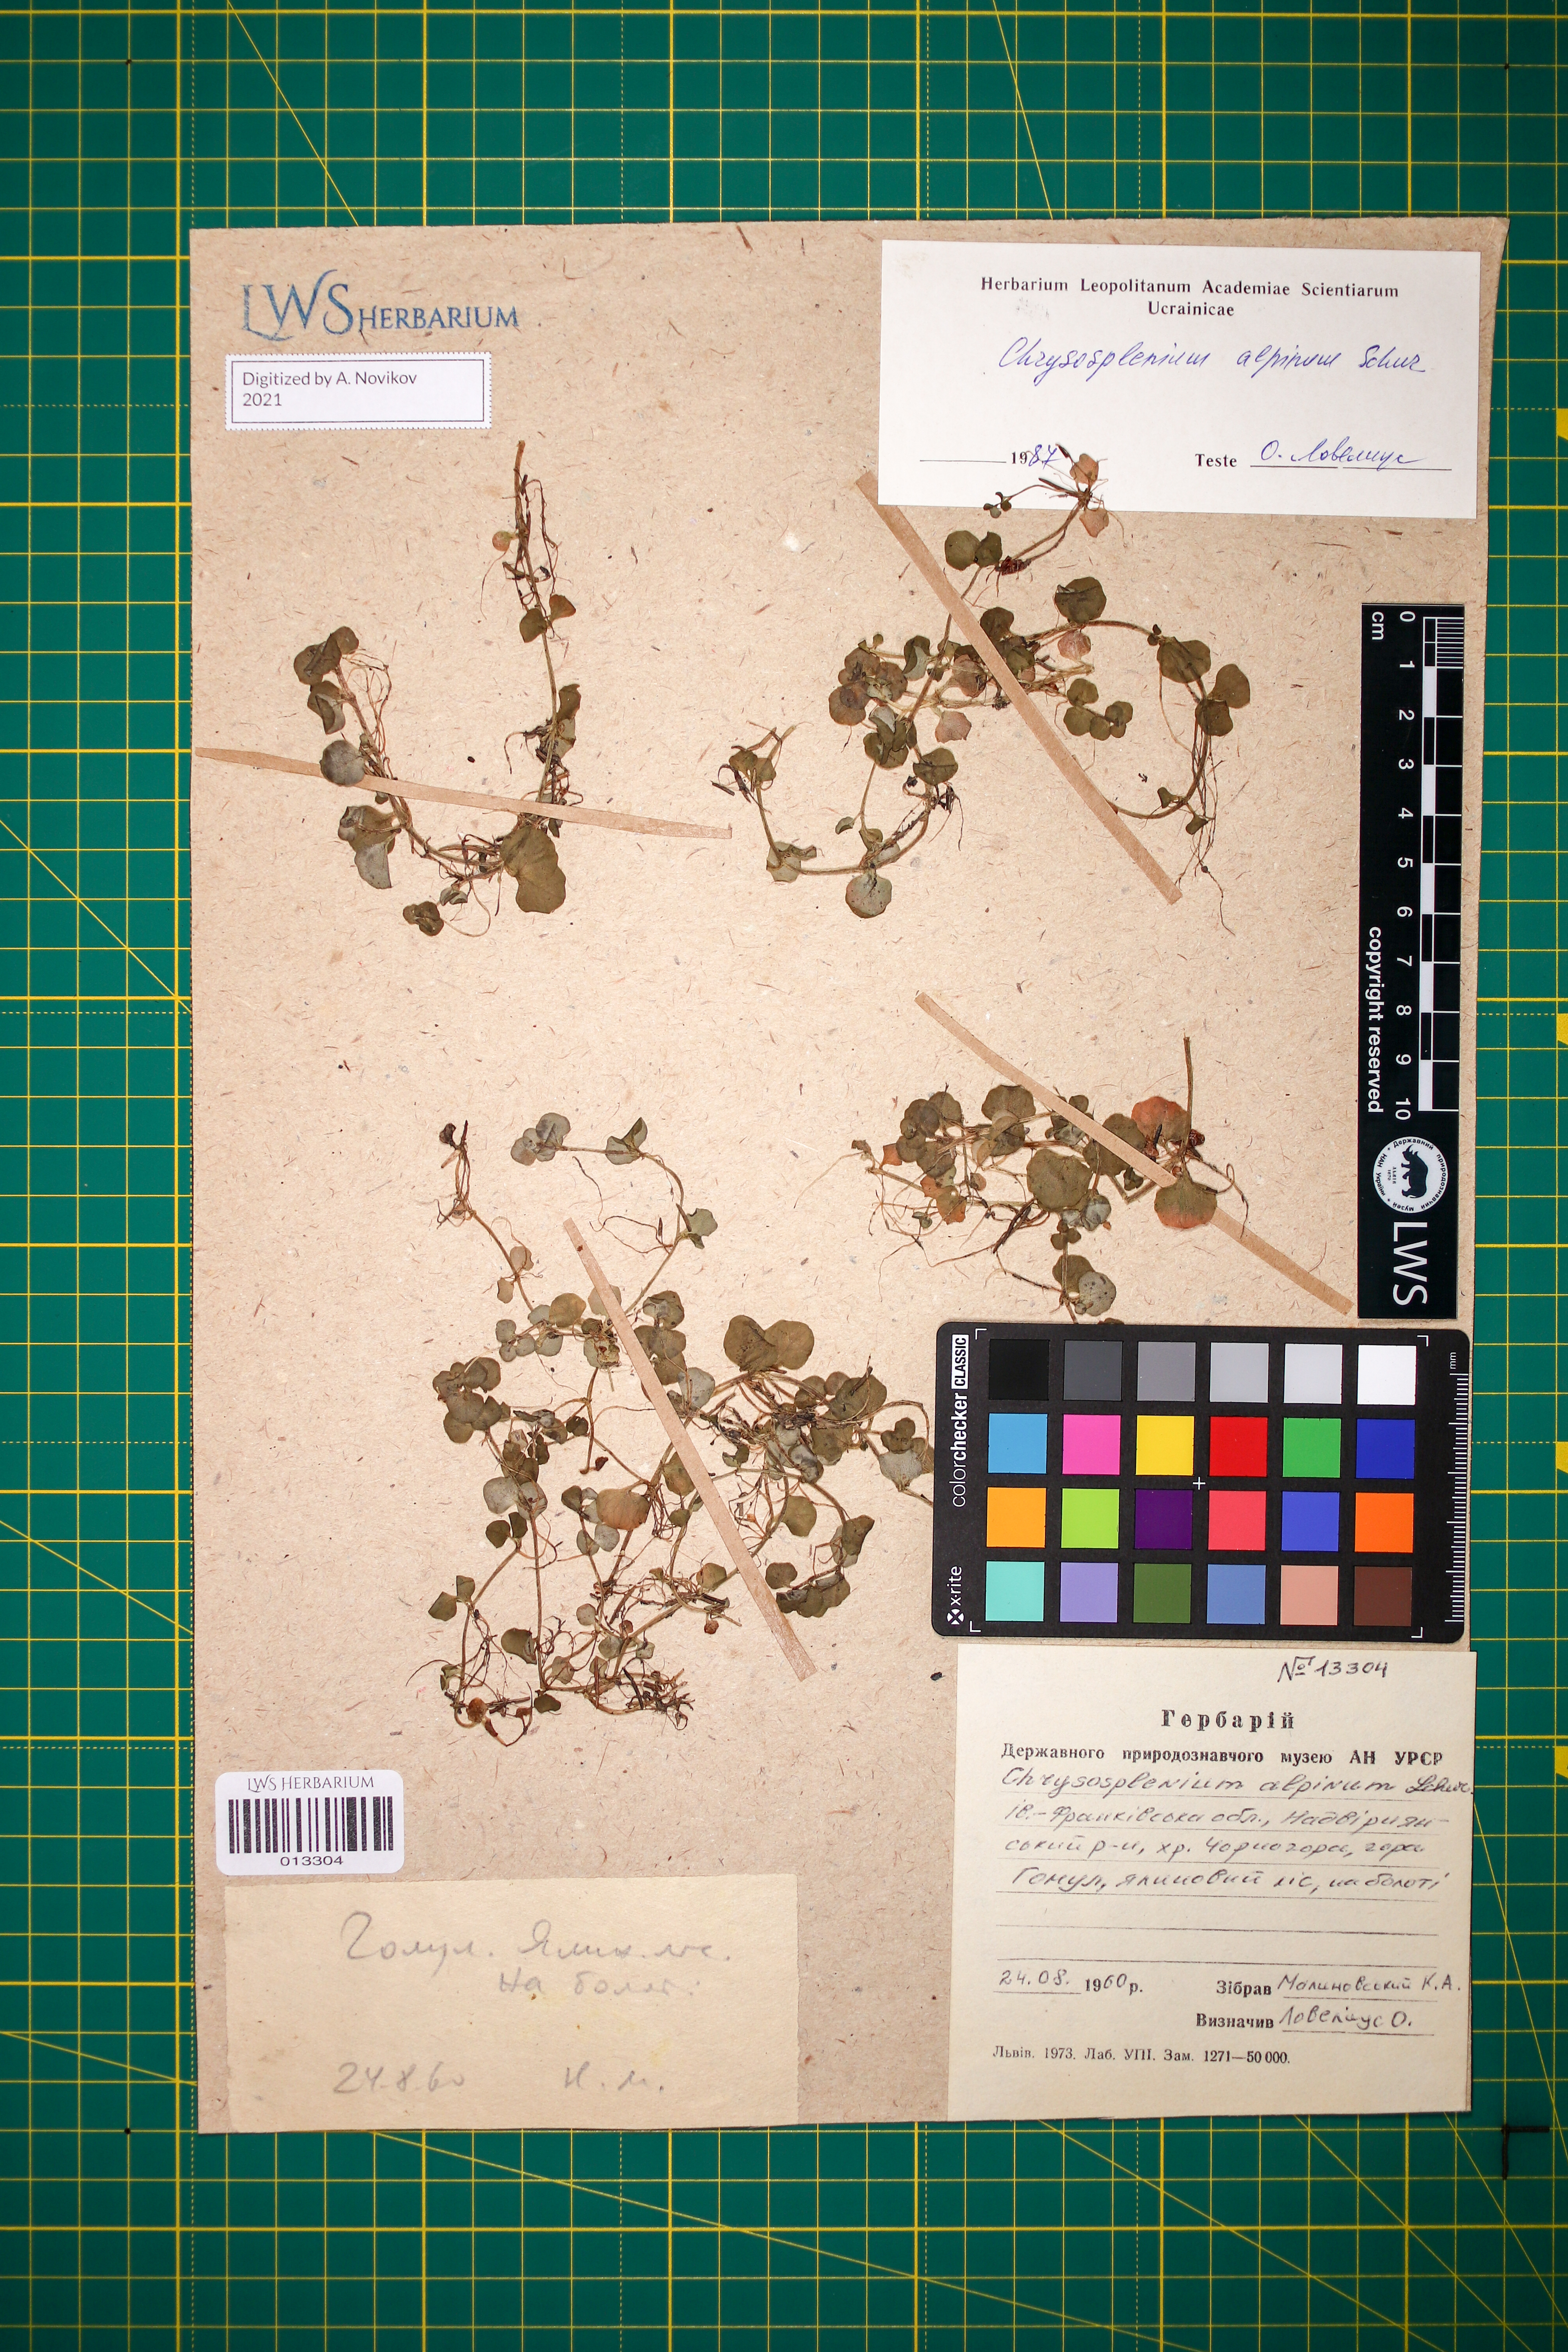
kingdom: Plantae
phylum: Tracheophyta
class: Magnoliopsida
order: Saxifragales
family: Saxifragaceae
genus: Chrysosplenium
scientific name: Chrysosplenium alpinum
